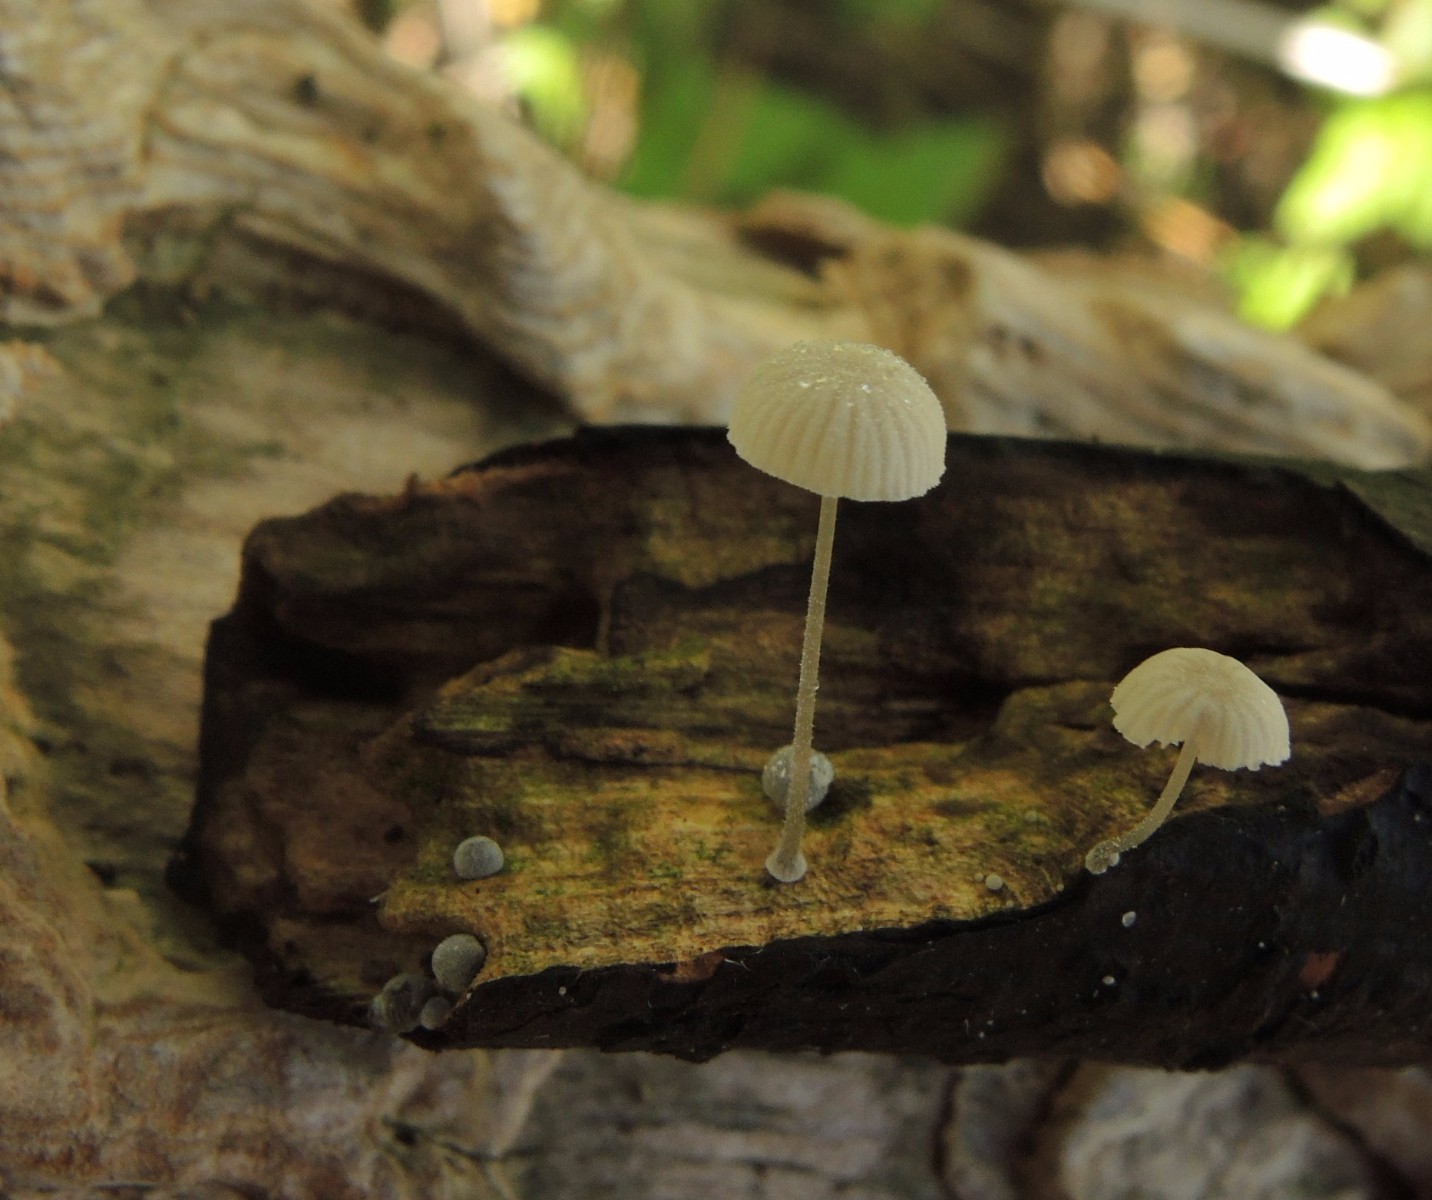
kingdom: Fungi
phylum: Basidiomycota
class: Agaricomycetes
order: Agaricales
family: Mycenaceae
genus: Mycena
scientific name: Mycena tenerrima
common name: pudret huesvamp
